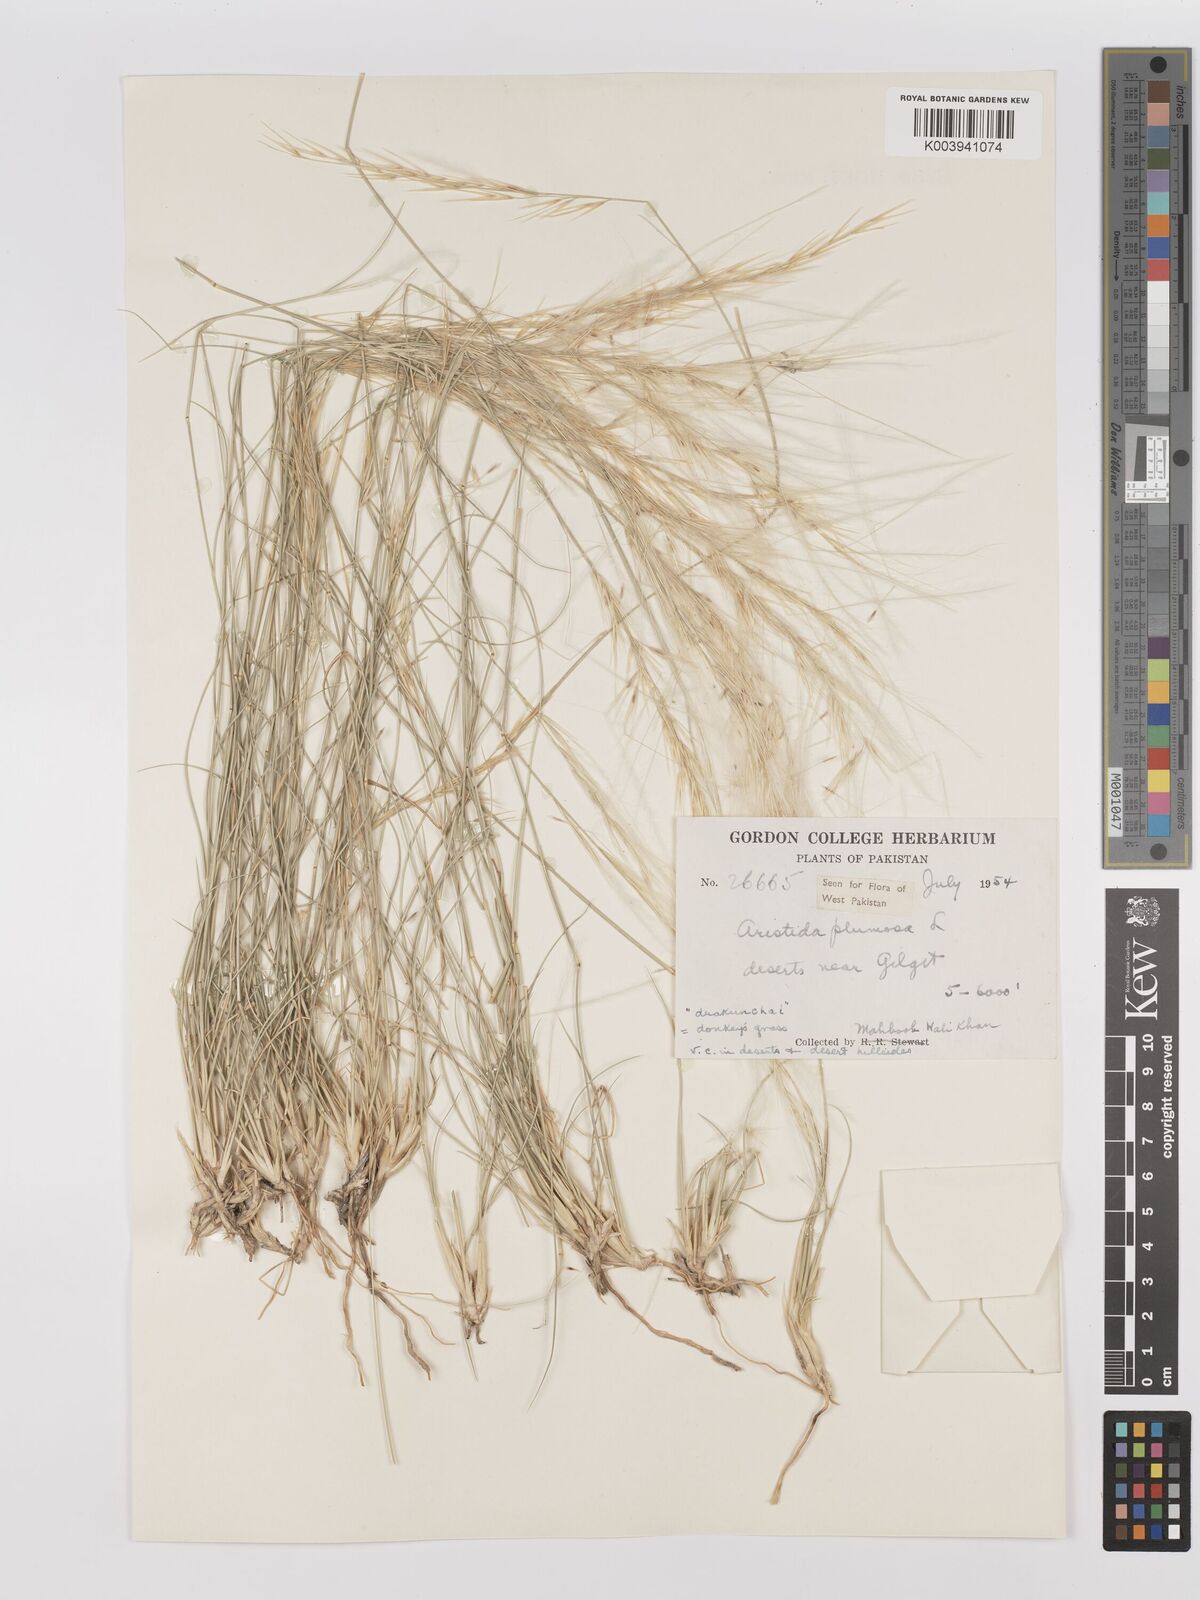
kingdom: Plantae
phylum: Tracheophyta
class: Liliopsida
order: Poales
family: Poaceae
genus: Stipagrostis
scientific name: Stipagrostis
